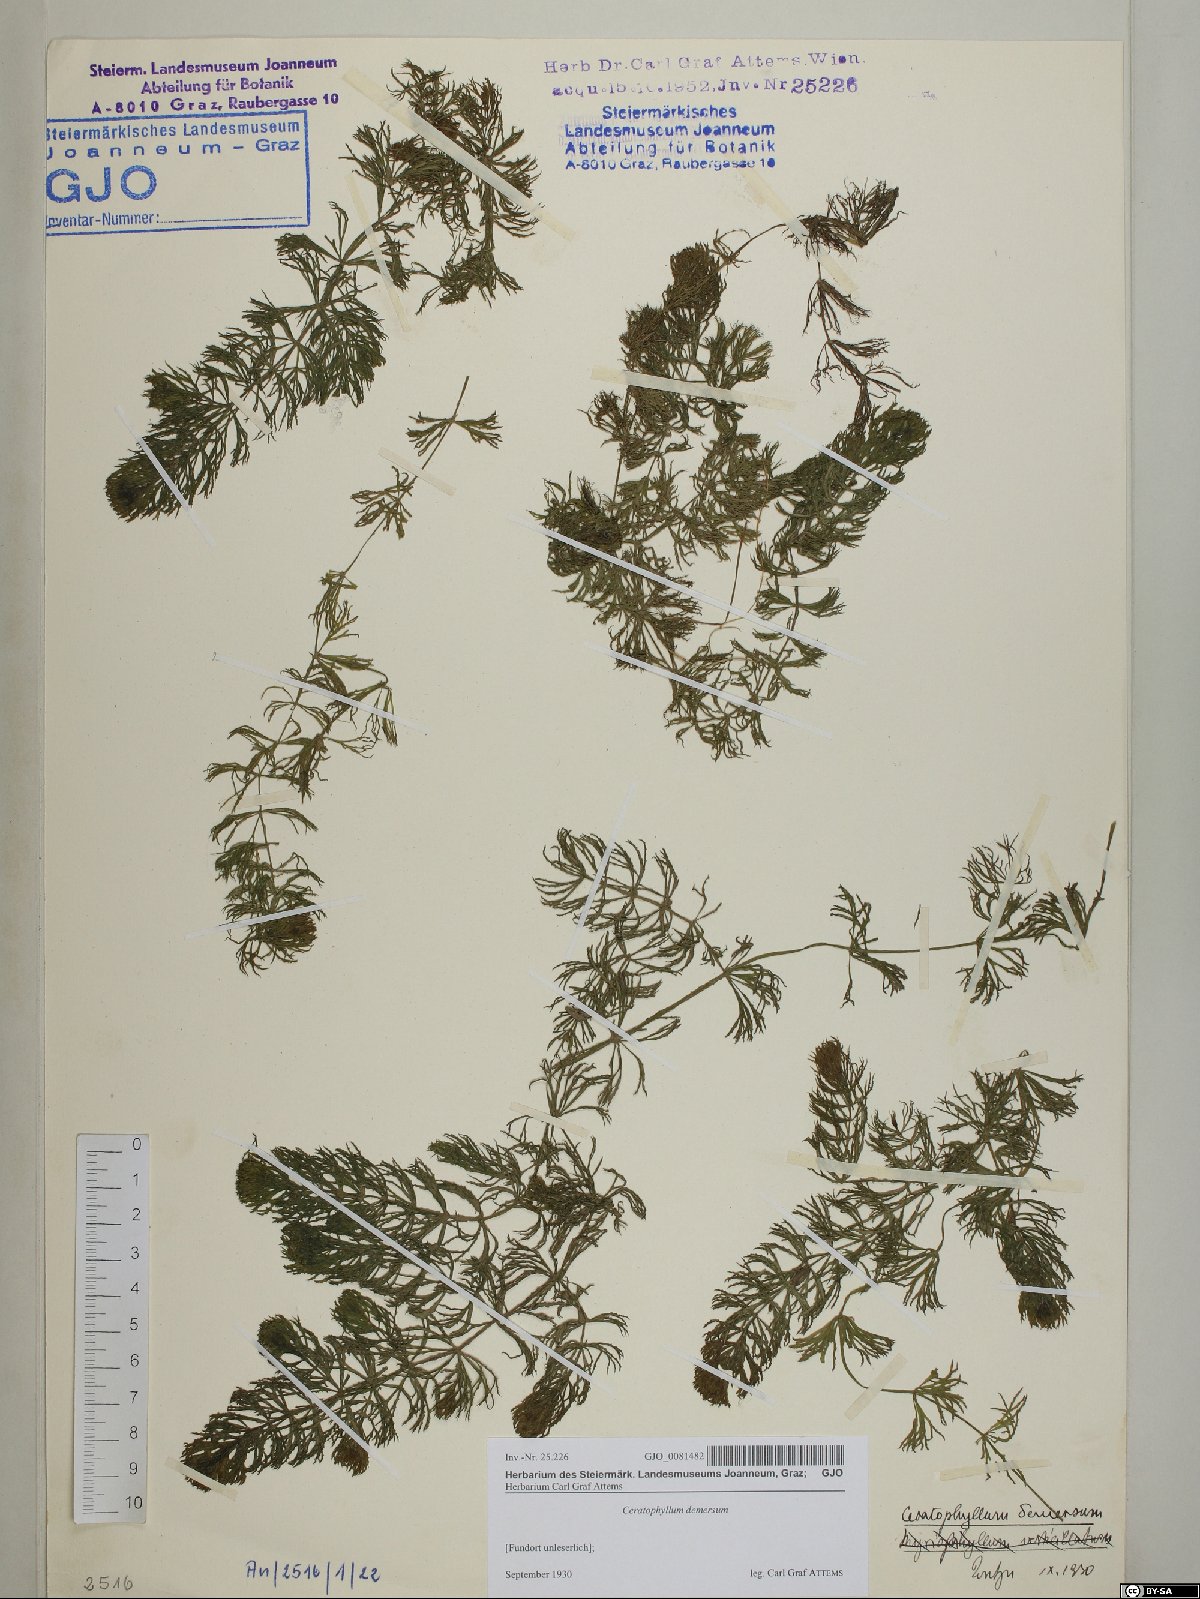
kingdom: Plantae
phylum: Tracheophyta
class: Magnoliopsida
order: Ceratophyllales
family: Ceratophyllaceae
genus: Ceratophyllum
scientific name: Ceratophyllum demersum
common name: Rigid hornwort
